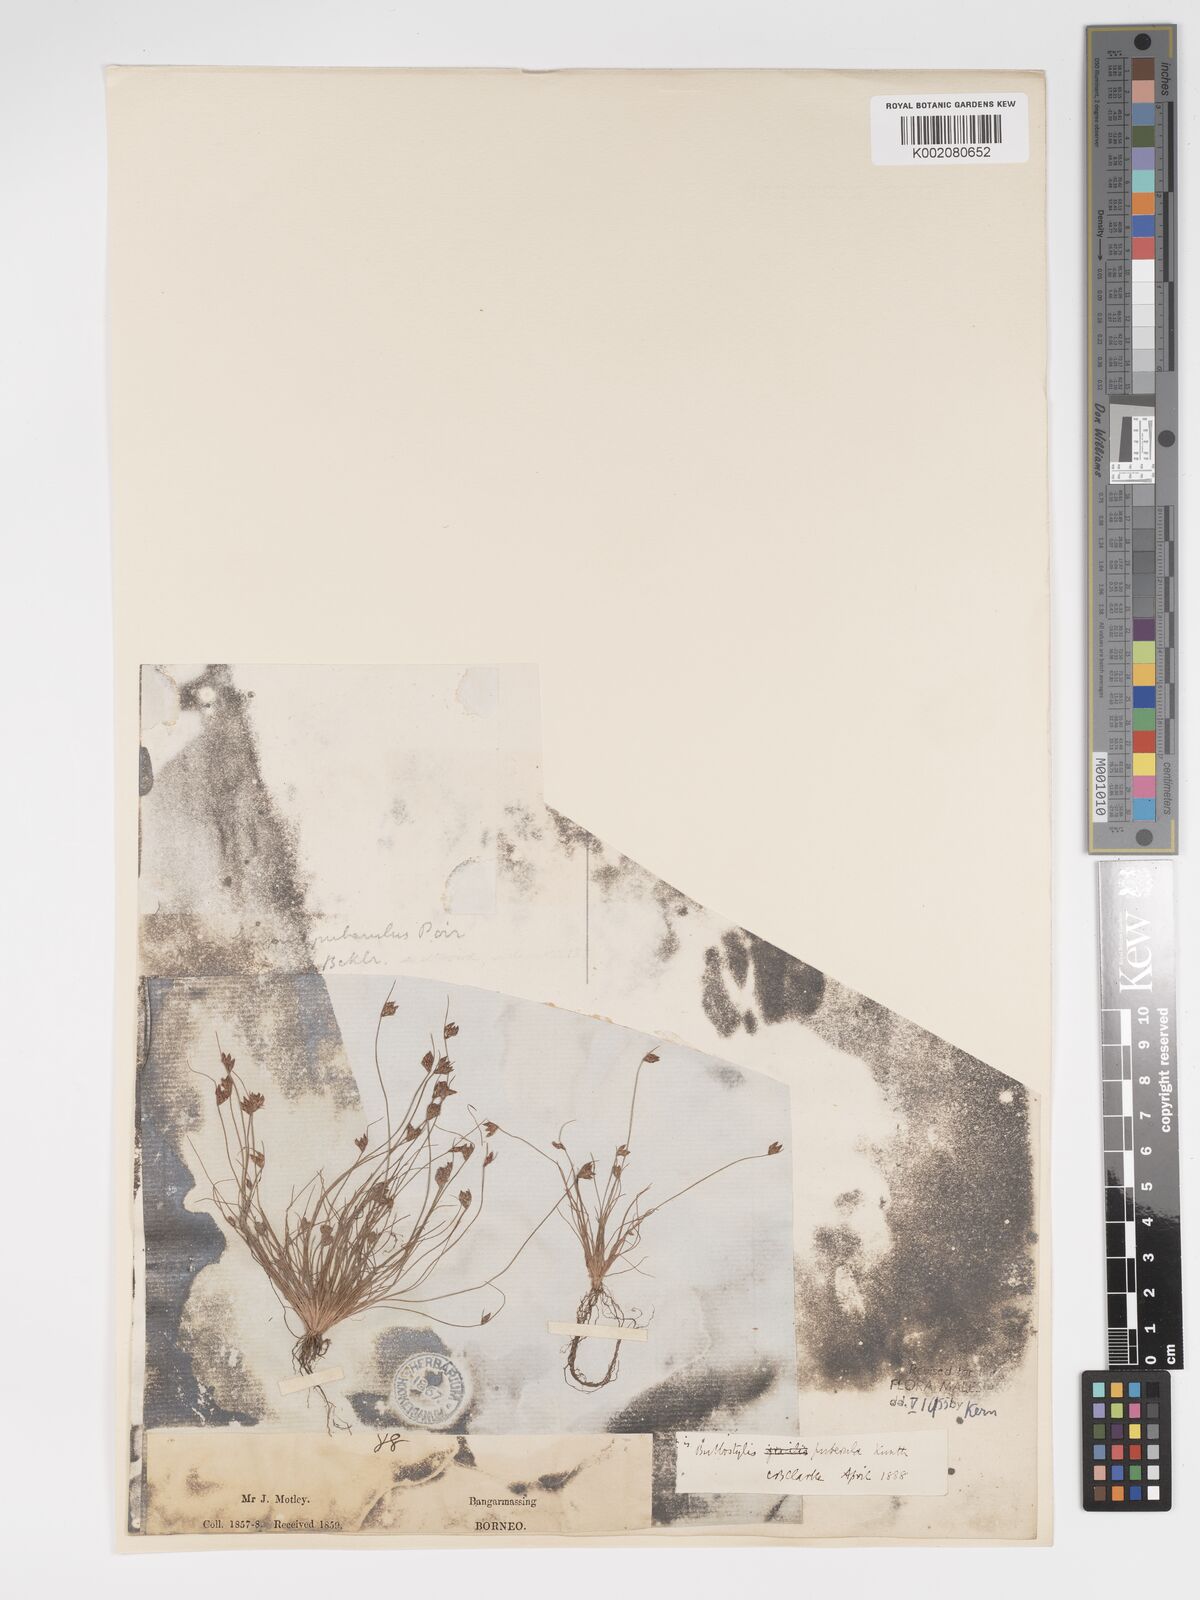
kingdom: Plantae
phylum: Tracheophyta
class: Liliopsida
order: Poales
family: Cyperaceae
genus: Bulbostylis
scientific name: Bulbostylis thouarsii
